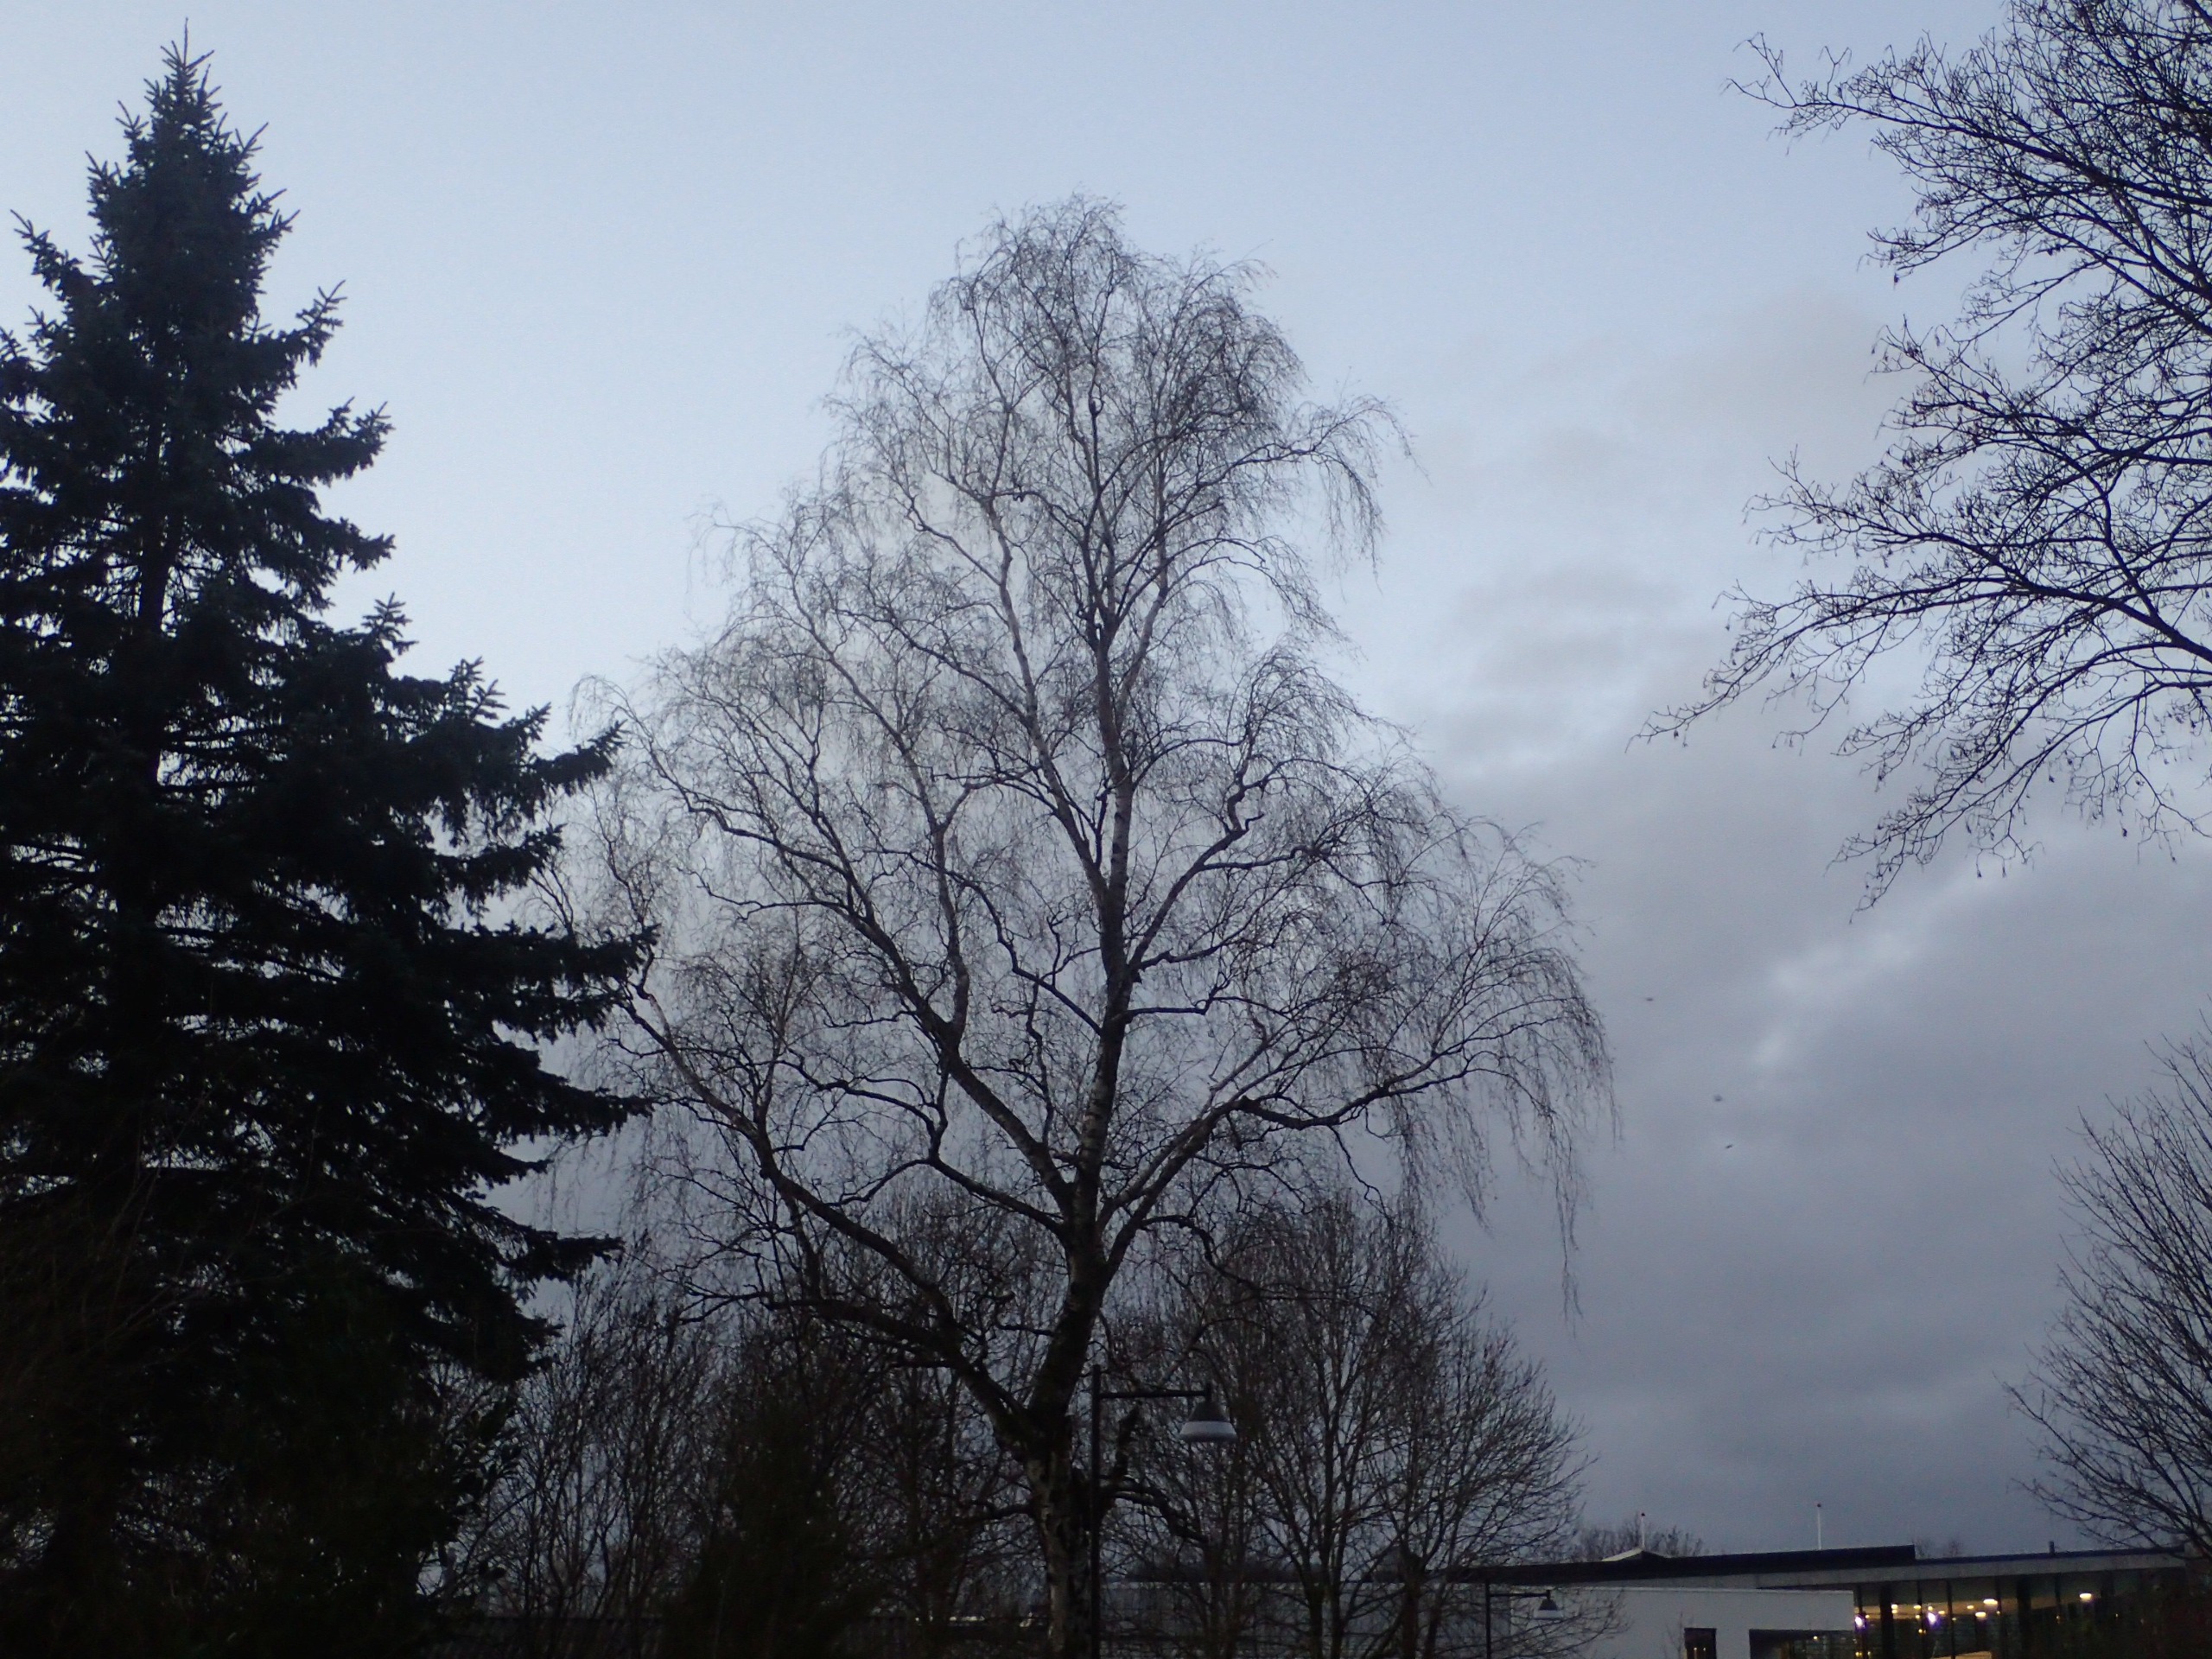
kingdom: Plantae
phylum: Tracheophyta
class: Magnoliopsida
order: Fagales
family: Betulaceae
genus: Betula
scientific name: Betula pendula
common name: Vorte-birk
